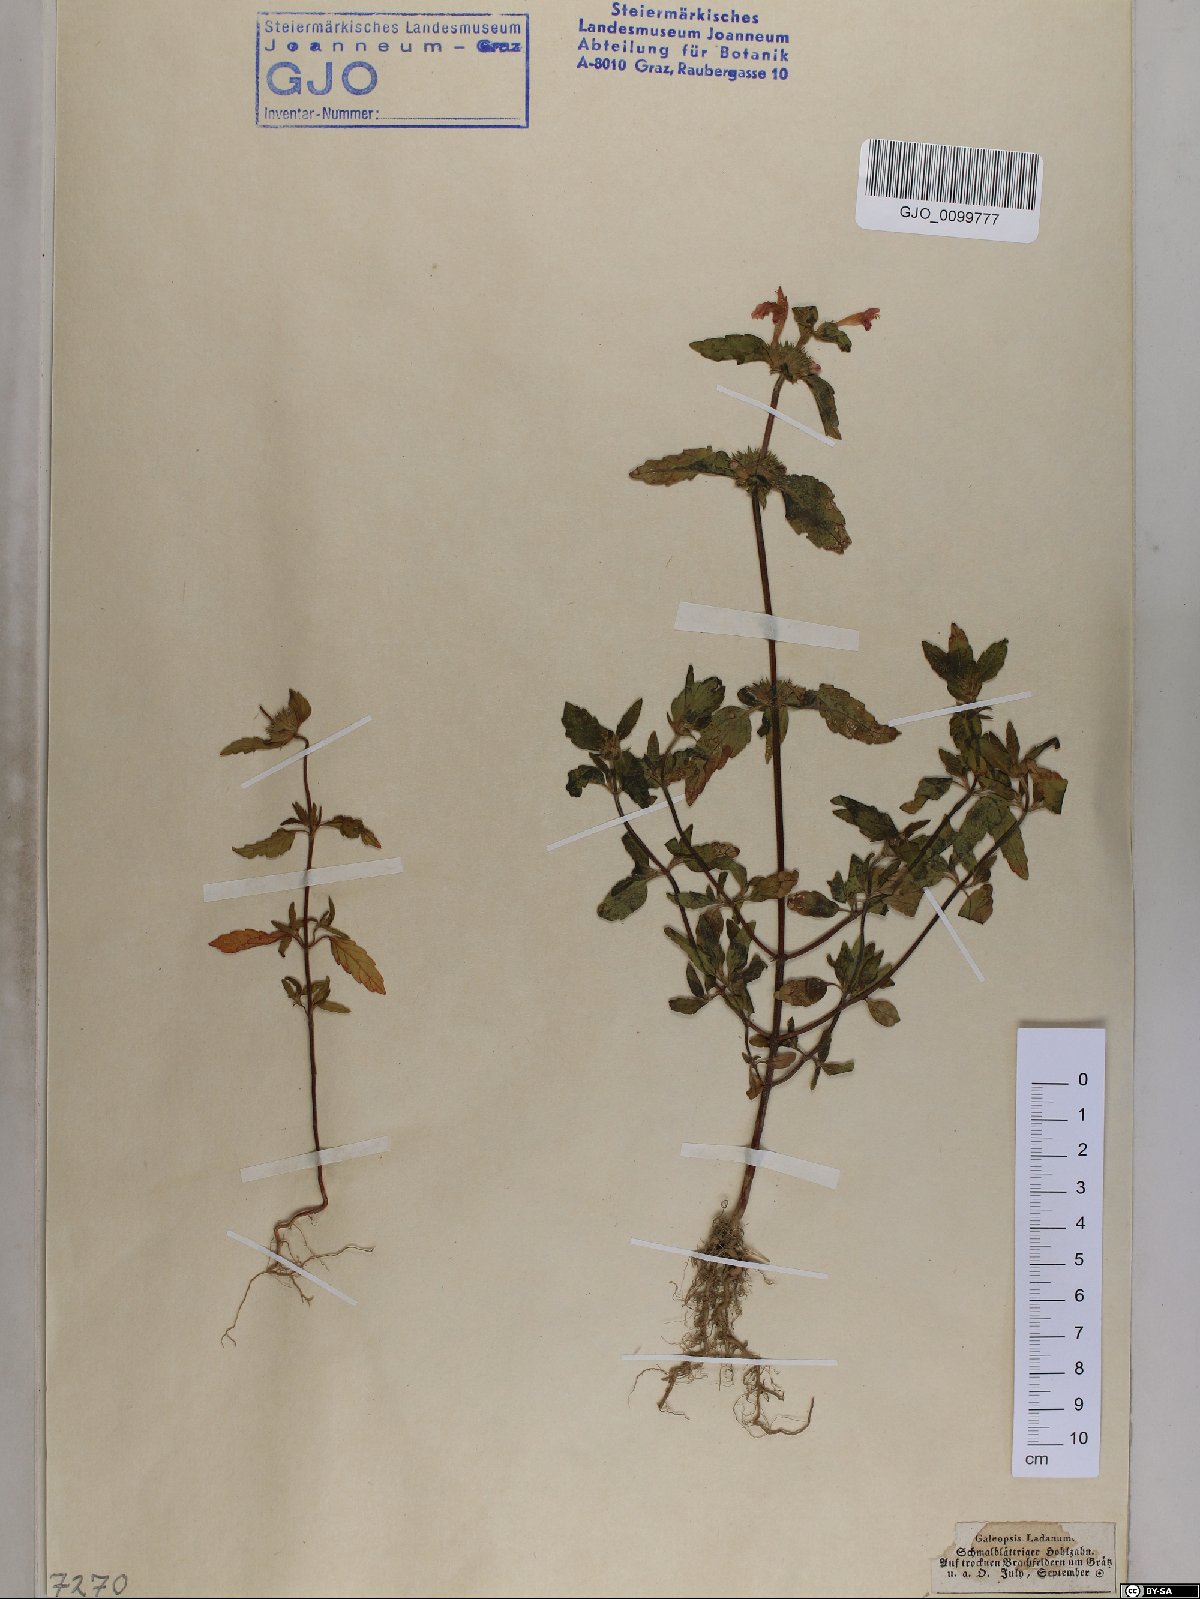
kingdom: Plantae
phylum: Tracheophyta
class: Magnoliopsida
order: Lamiales
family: Lamiaceae
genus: Galeopsis
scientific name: Galeopsis ladanum
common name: Broad-leaved hemp-nettle
